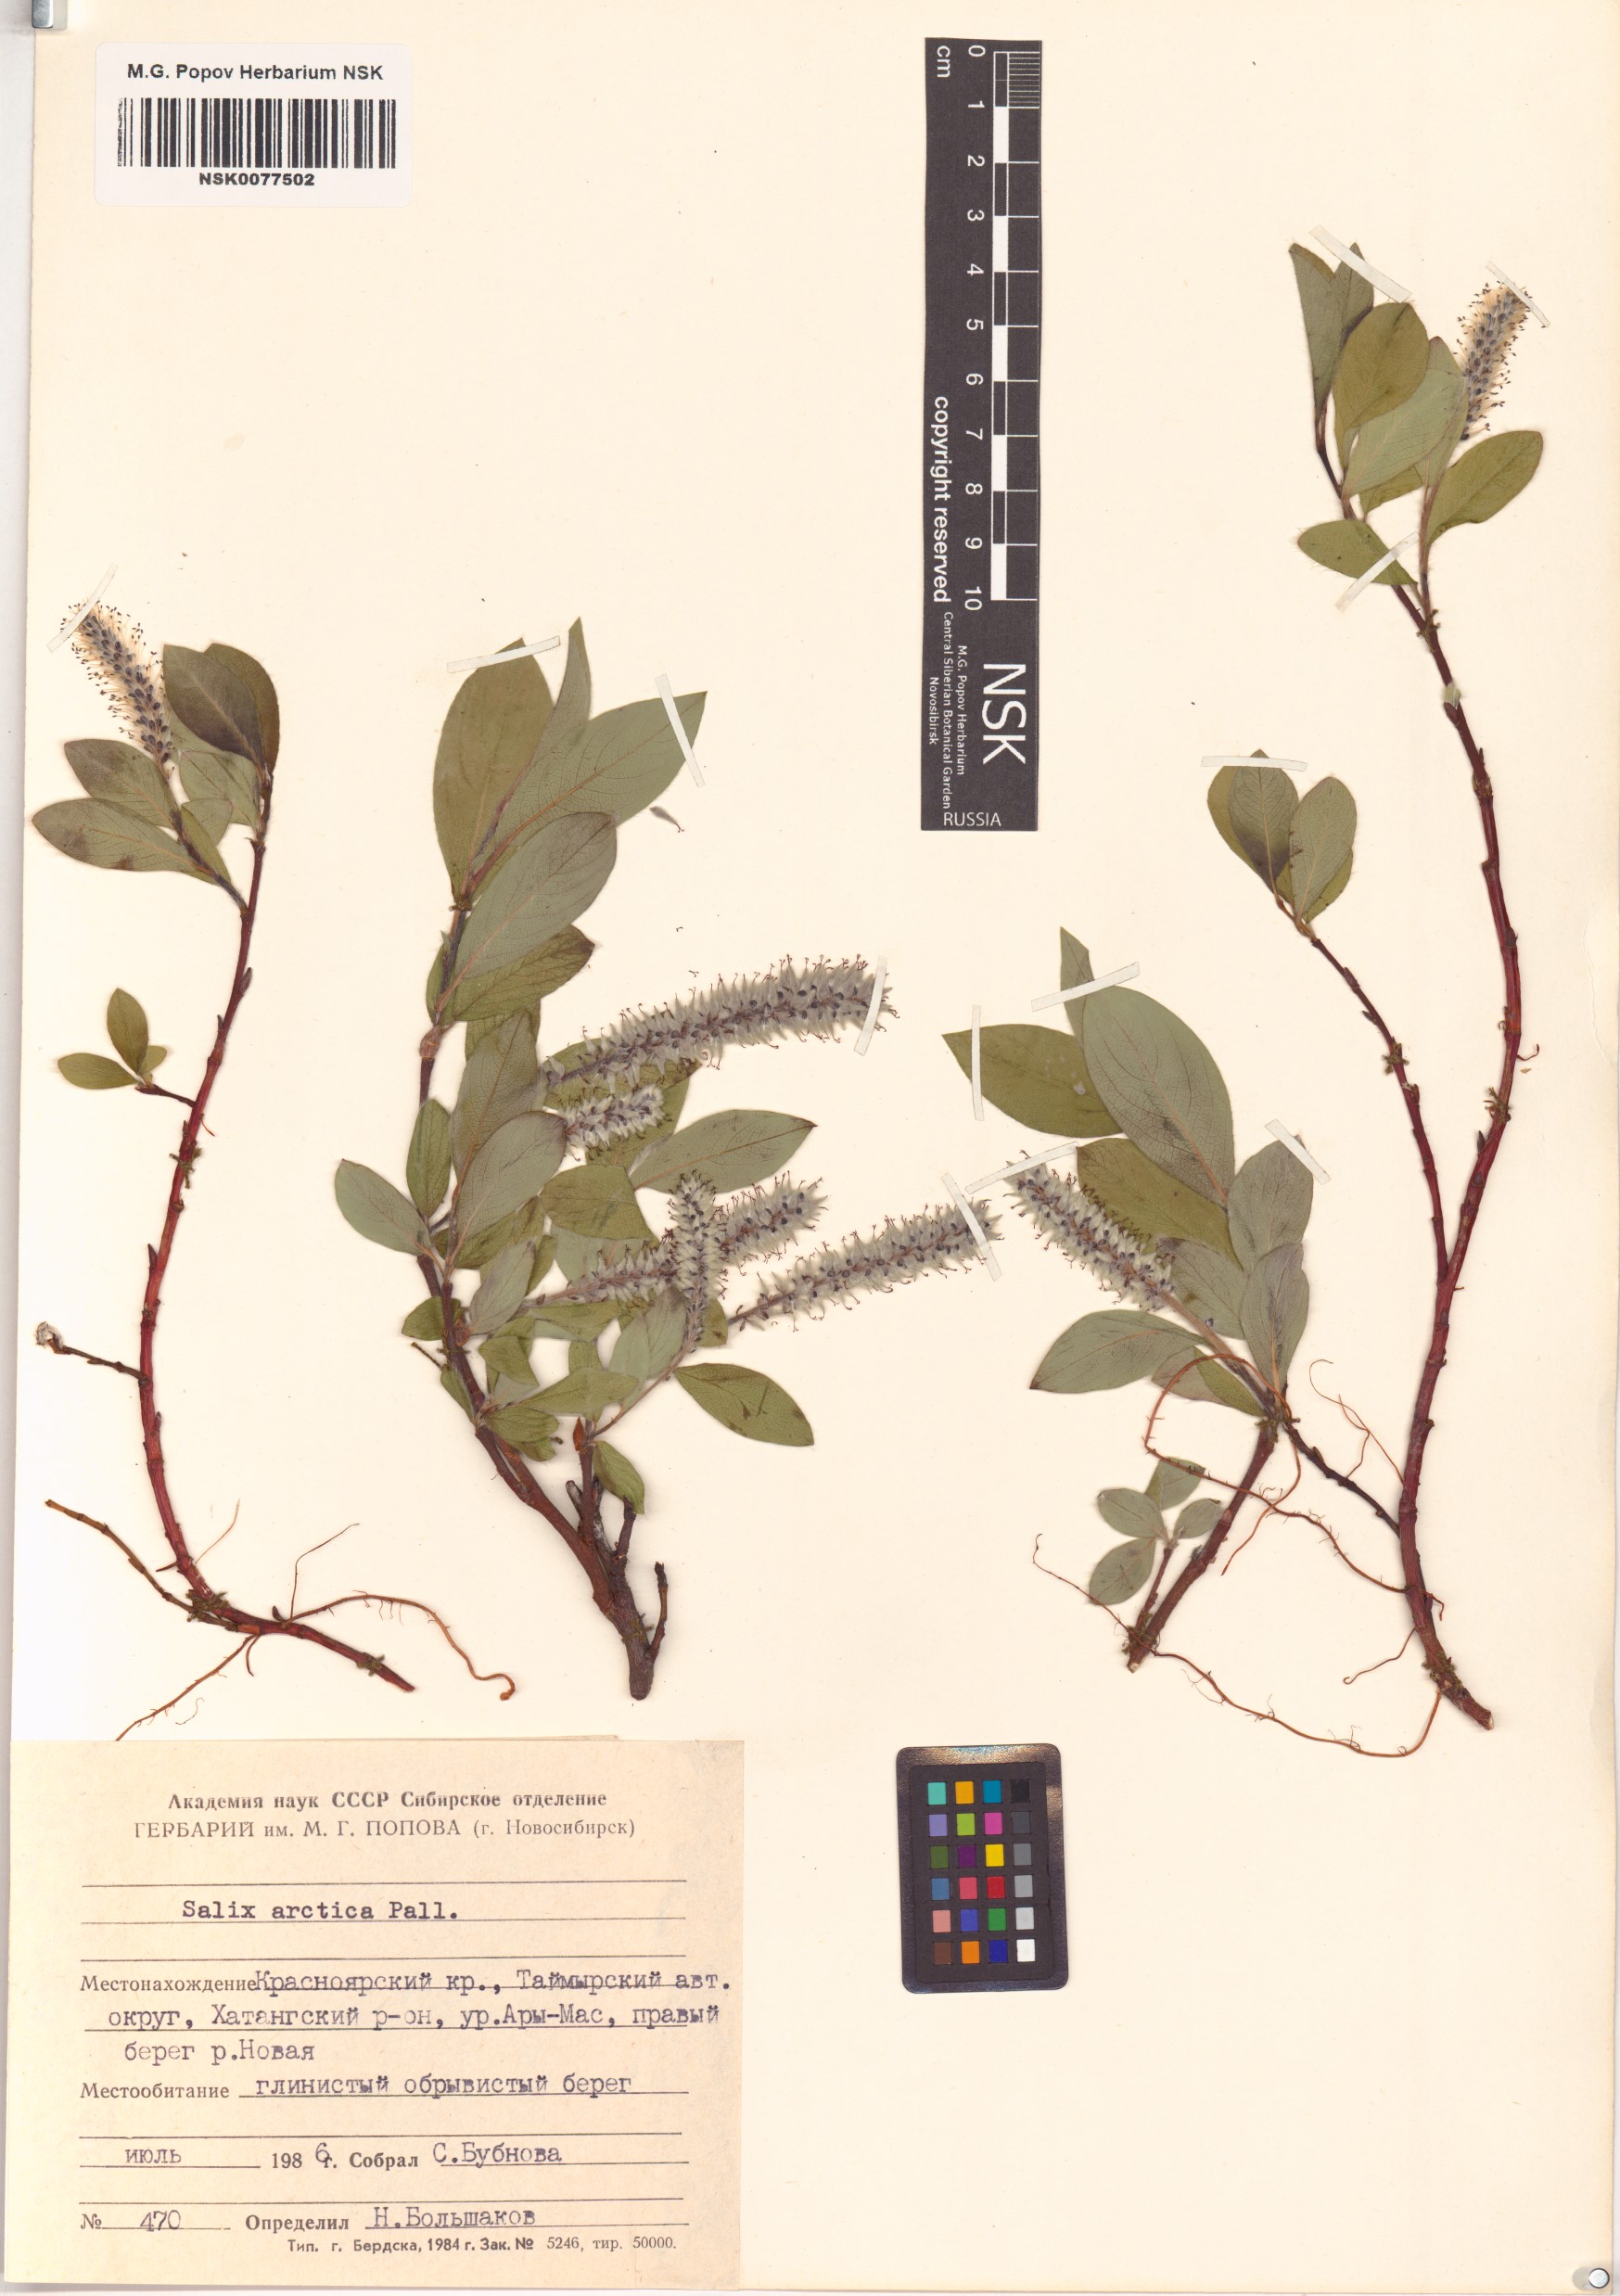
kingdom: Plantae
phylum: Tracheophyta
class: Magnoliopsida
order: Malpighiales
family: Salicaceae
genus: Salix
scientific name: Salix arctica
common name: Arctic willow
